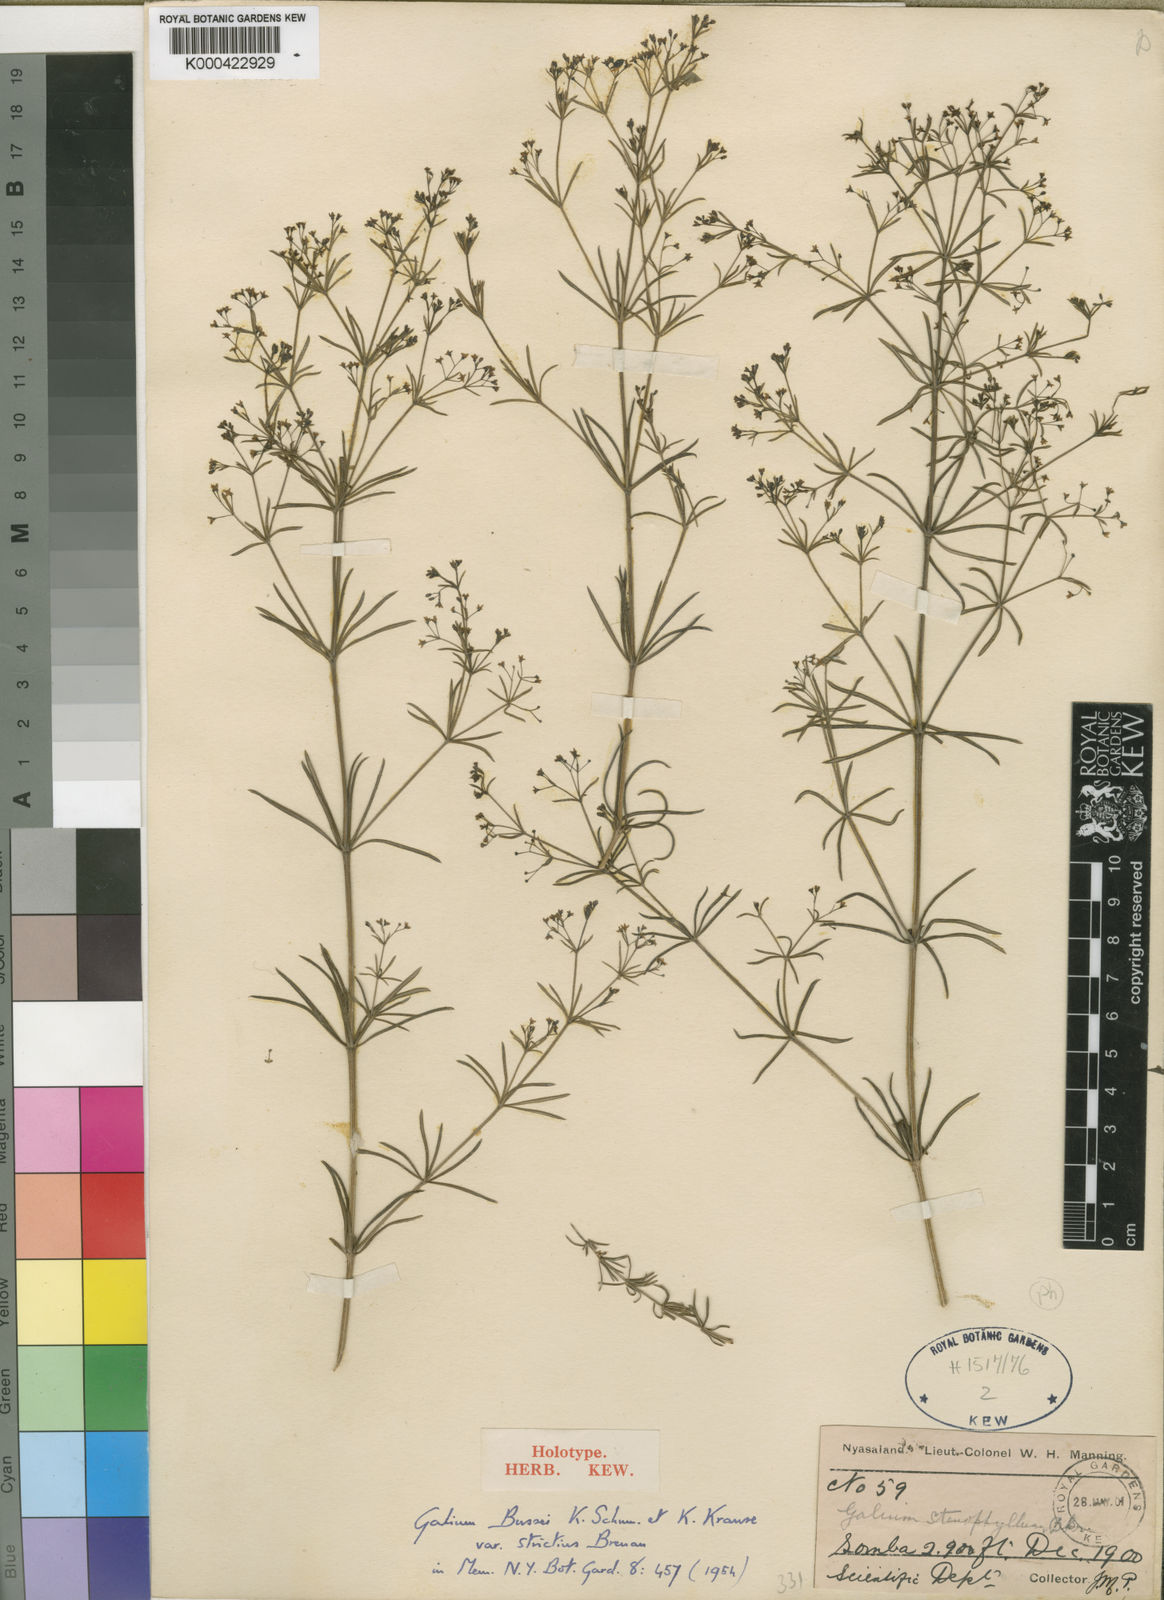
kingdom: Plantae
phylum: Tracheophyta
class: Magnoliopsida
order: Gentianales
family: Rubiaceae
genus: Galium
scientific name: Galium bussei
